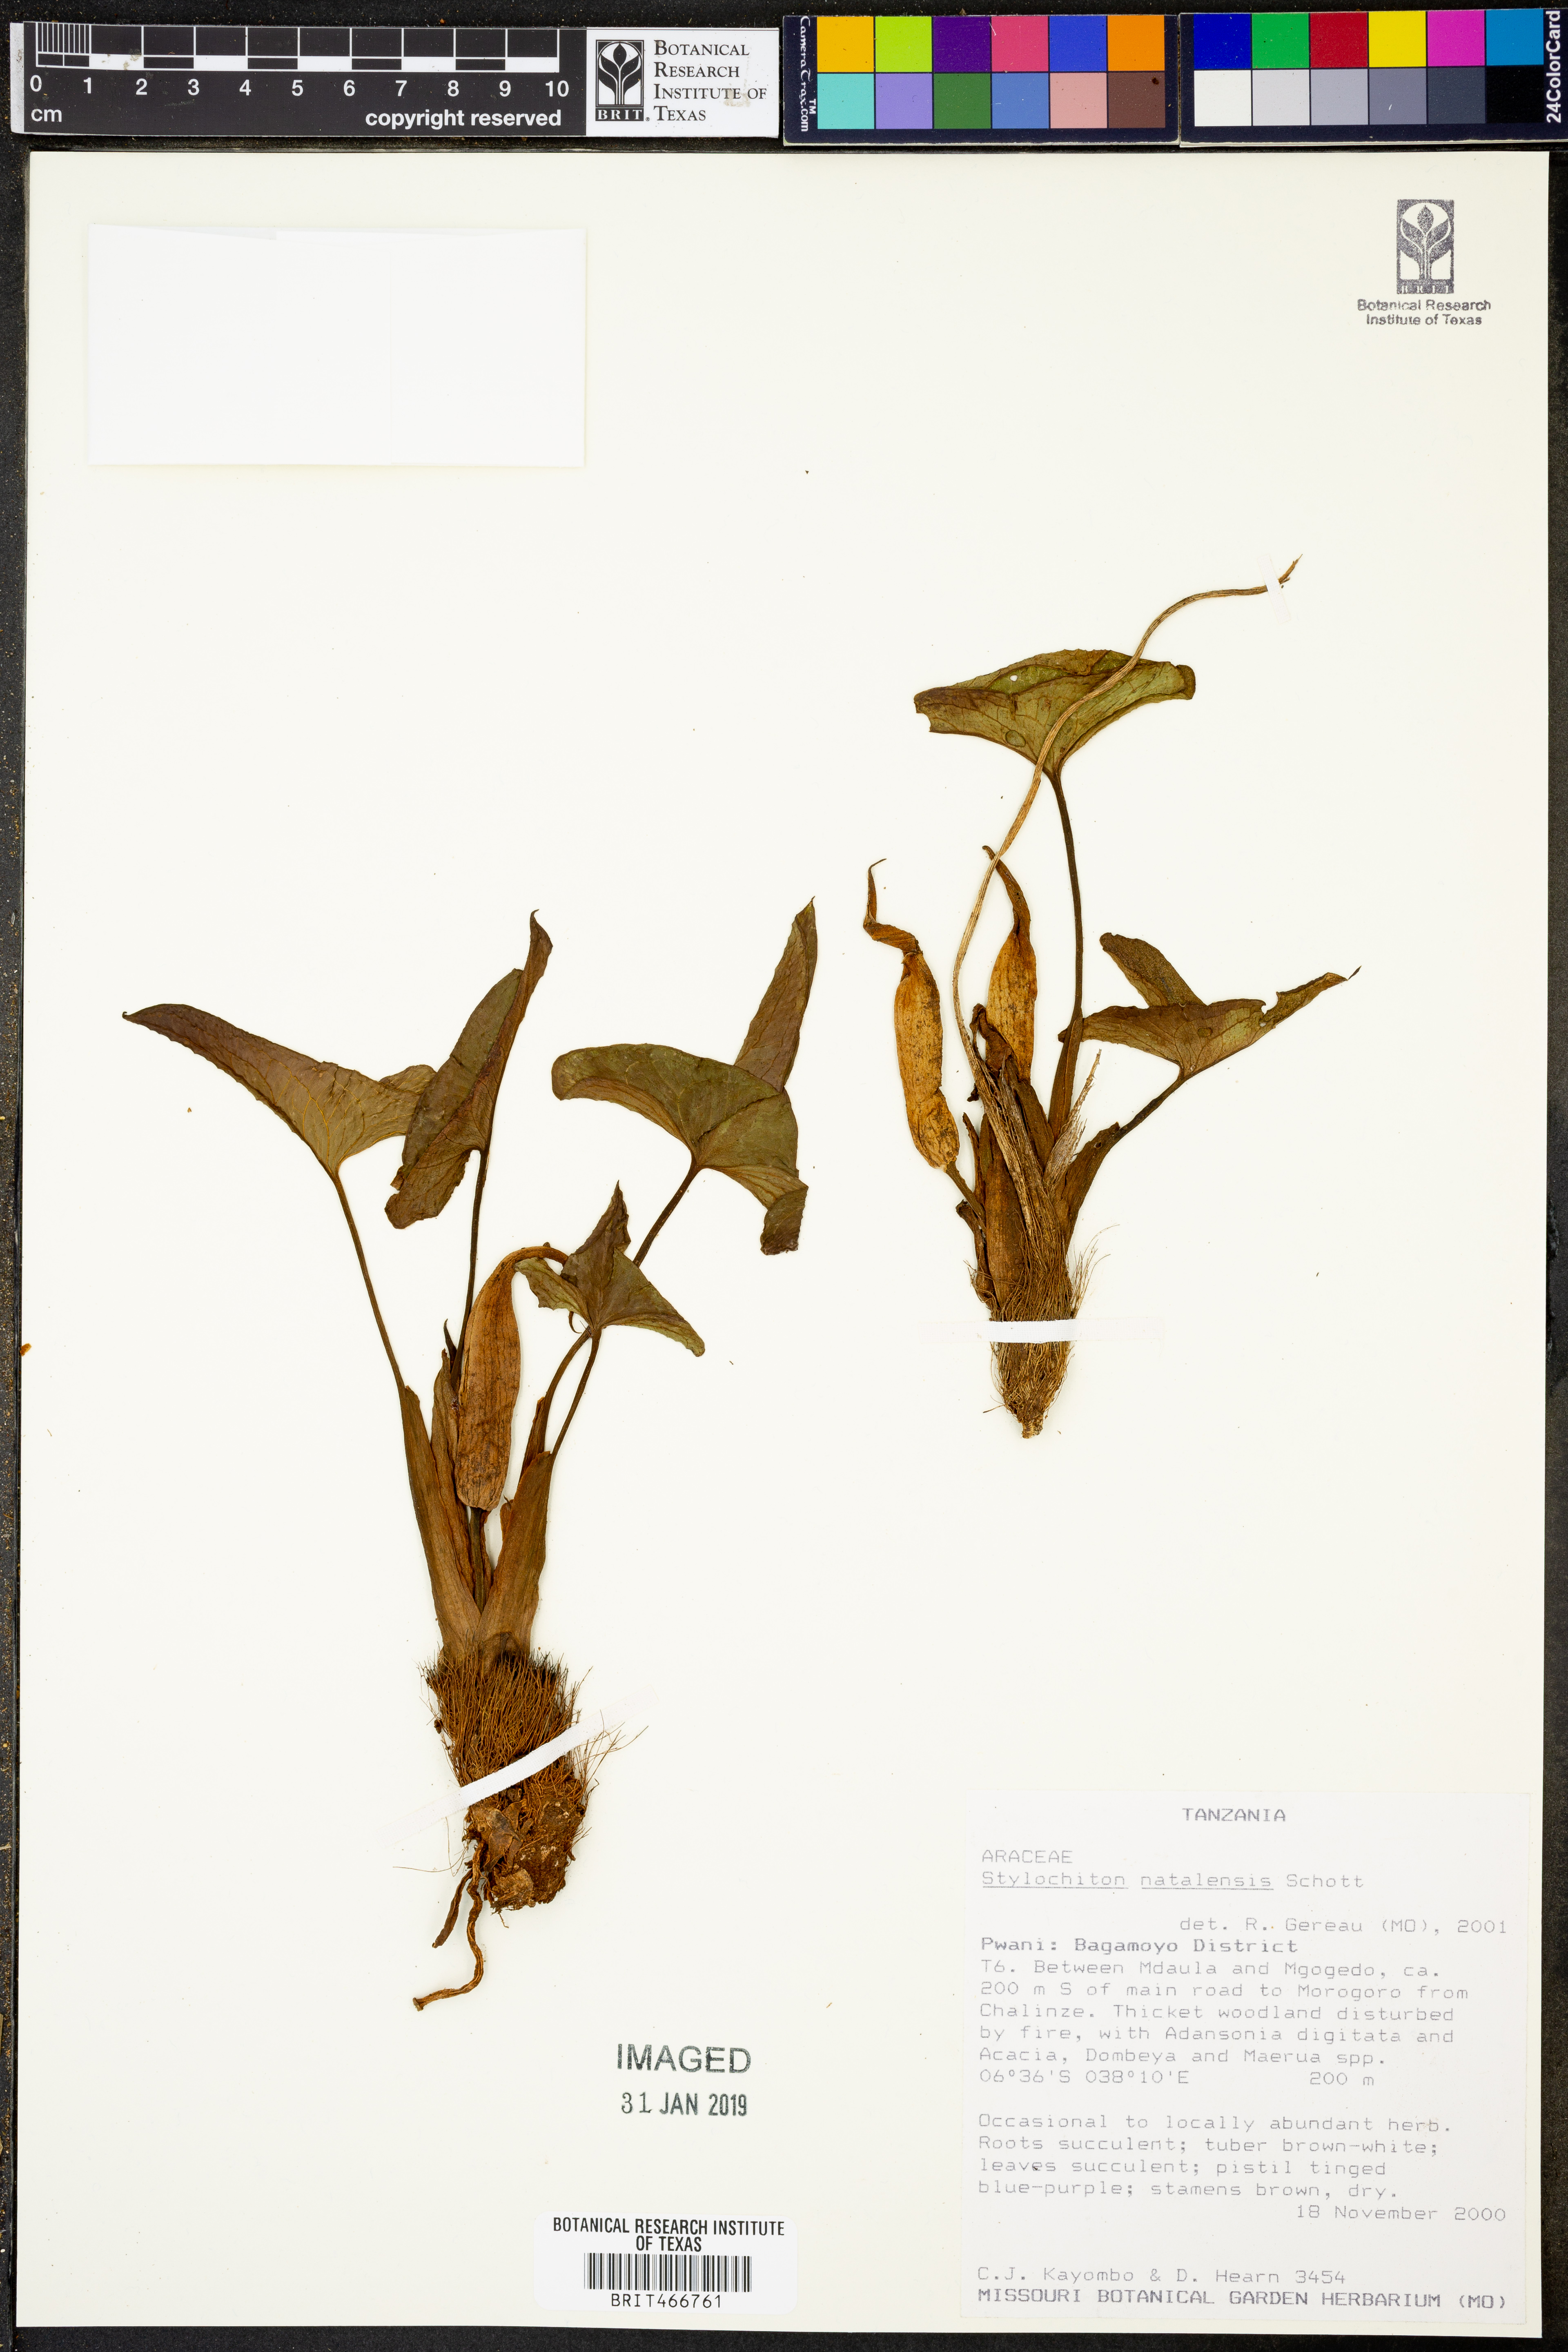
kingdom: Plantae
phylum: Tracheophyta
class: Liliopsida
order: Alismatales
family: Araceae
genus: Stylochiton
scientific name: Stylochiton natalensis
